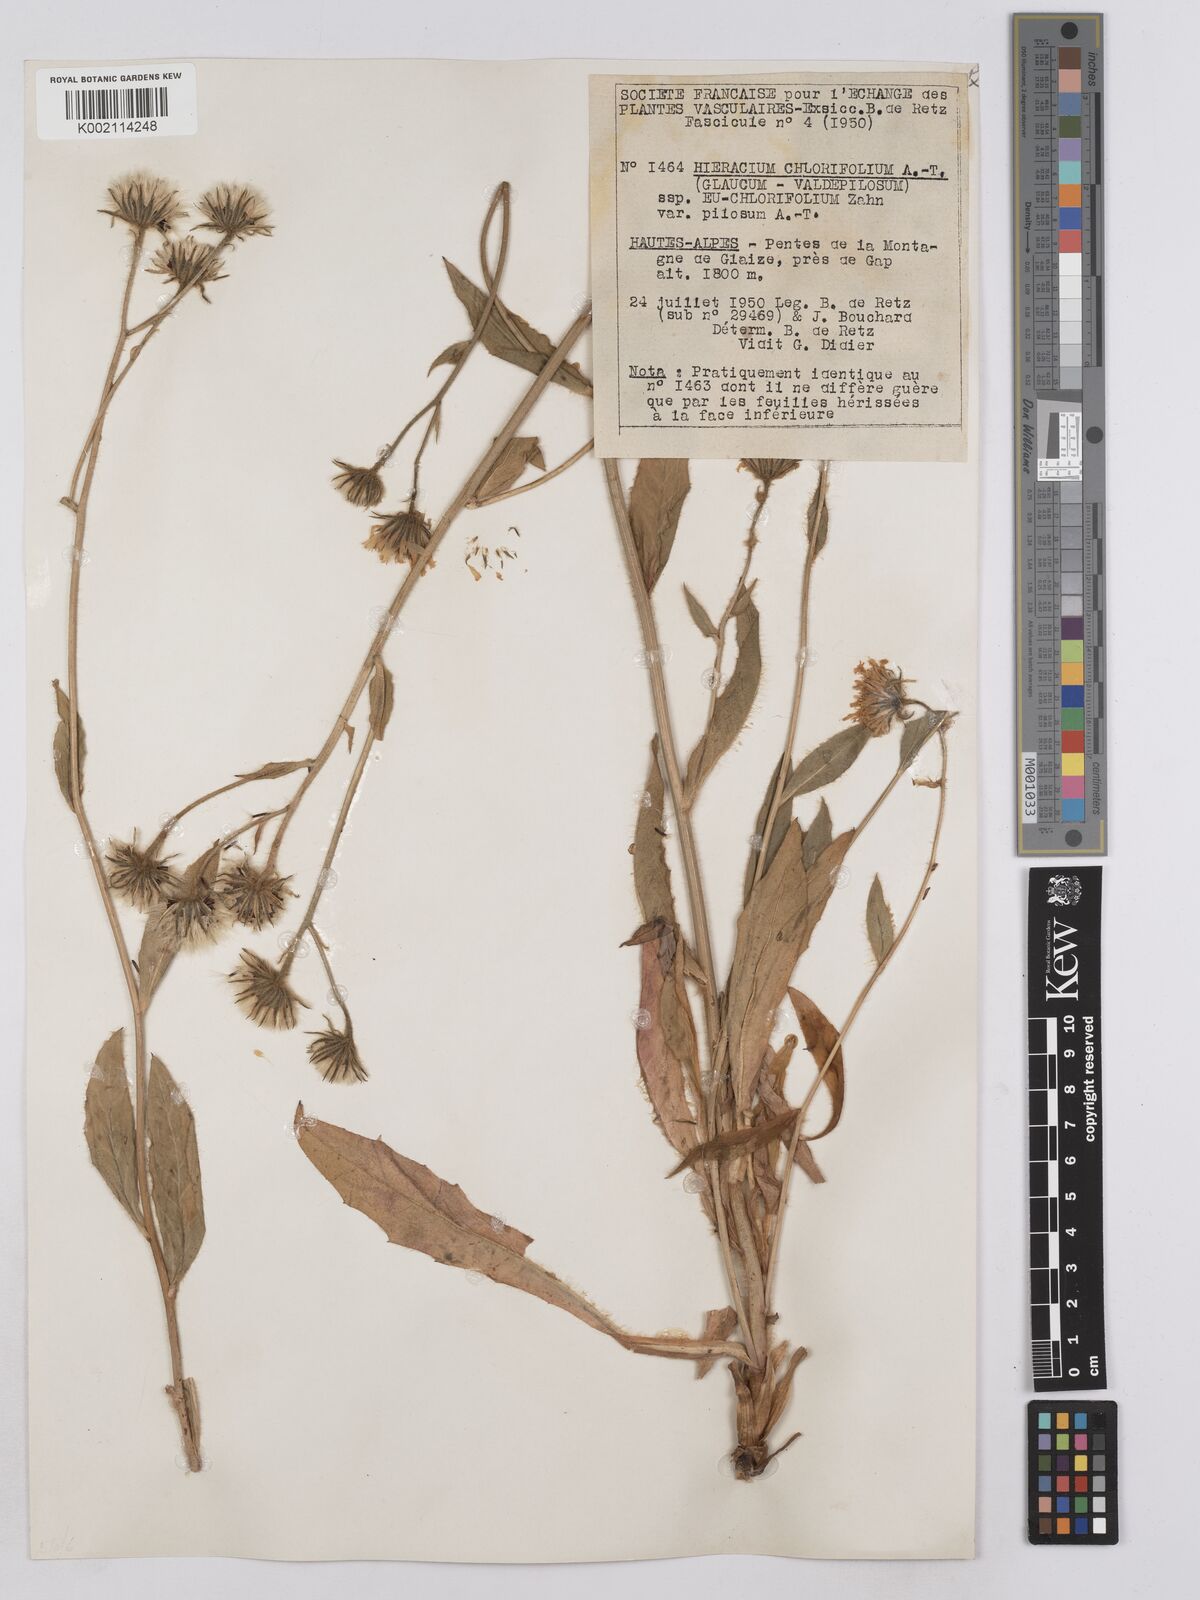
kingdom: Plantae
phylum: Tracheophyta
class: Magnoliopsida
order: Asterales
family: Asteraceae
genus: Hieracium
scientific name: Hieracium chlorifolium
